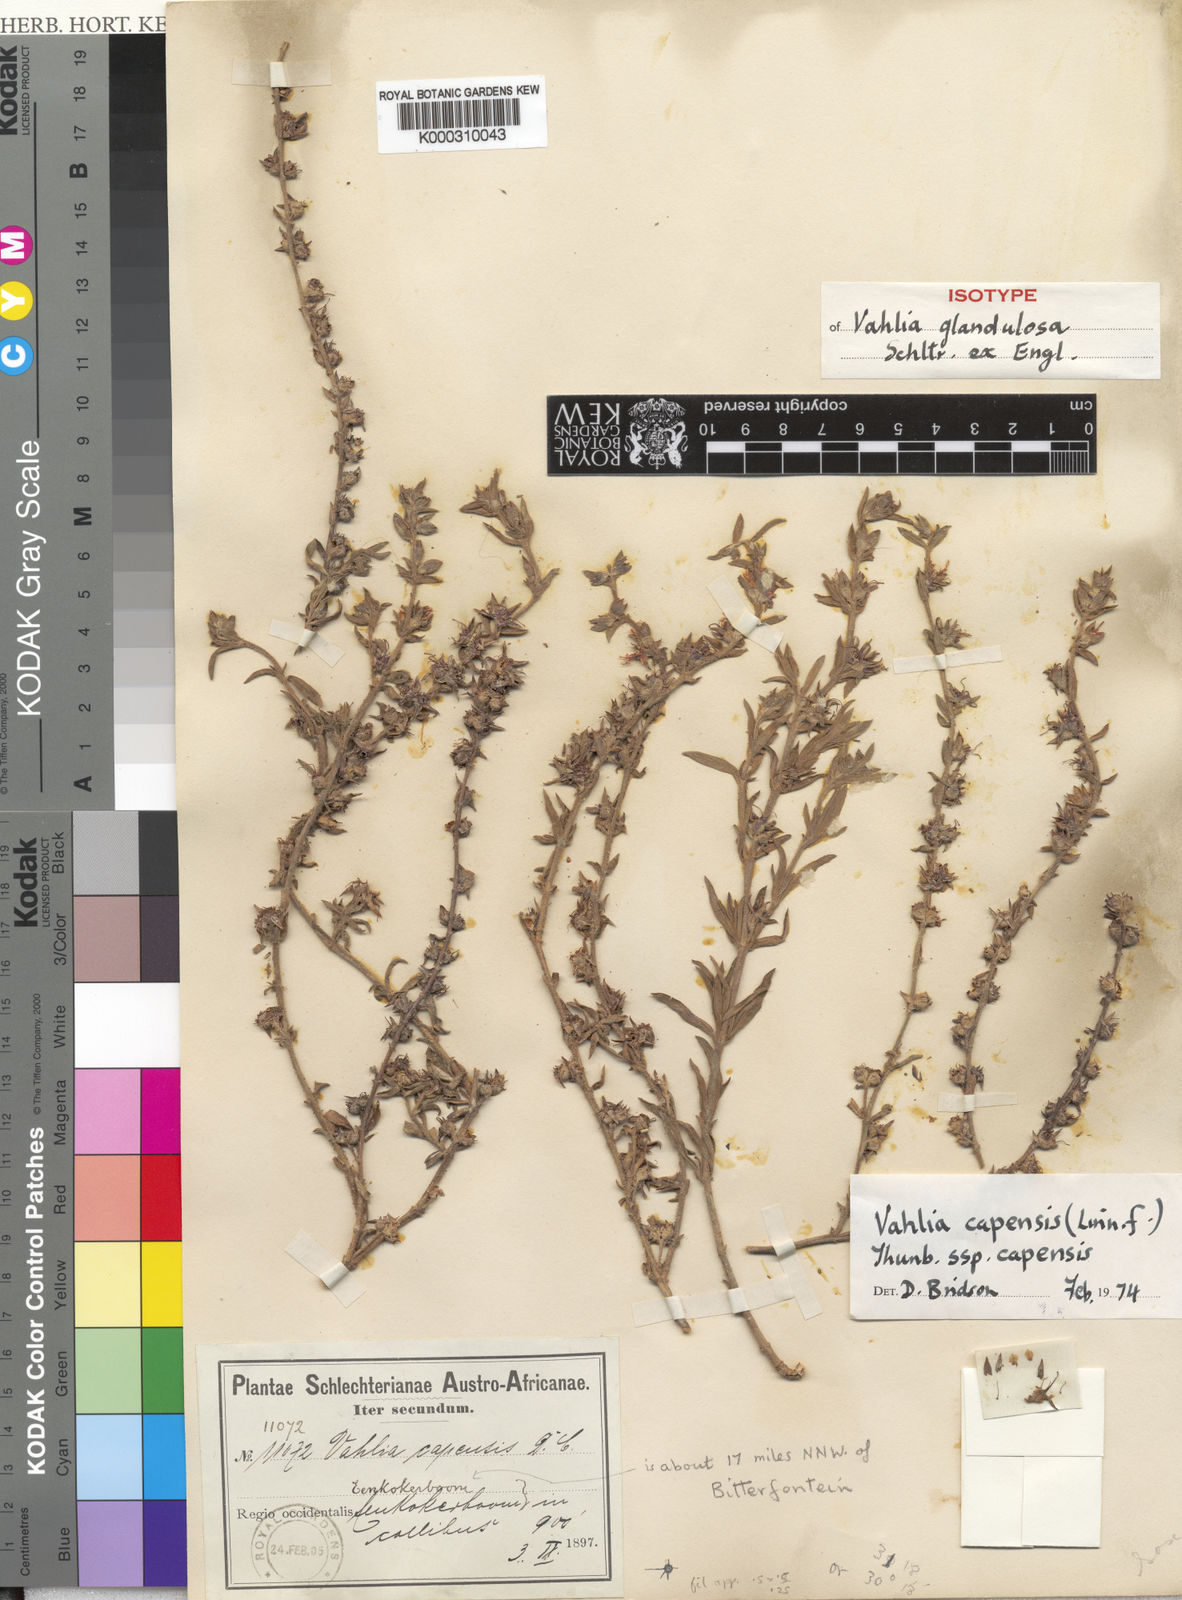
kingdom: Plantae
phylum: Tracheophyta
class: Magnoliopsida
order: Vahliales
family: Vahliaceae
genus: Vahlia
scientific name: Vahlia capensis
